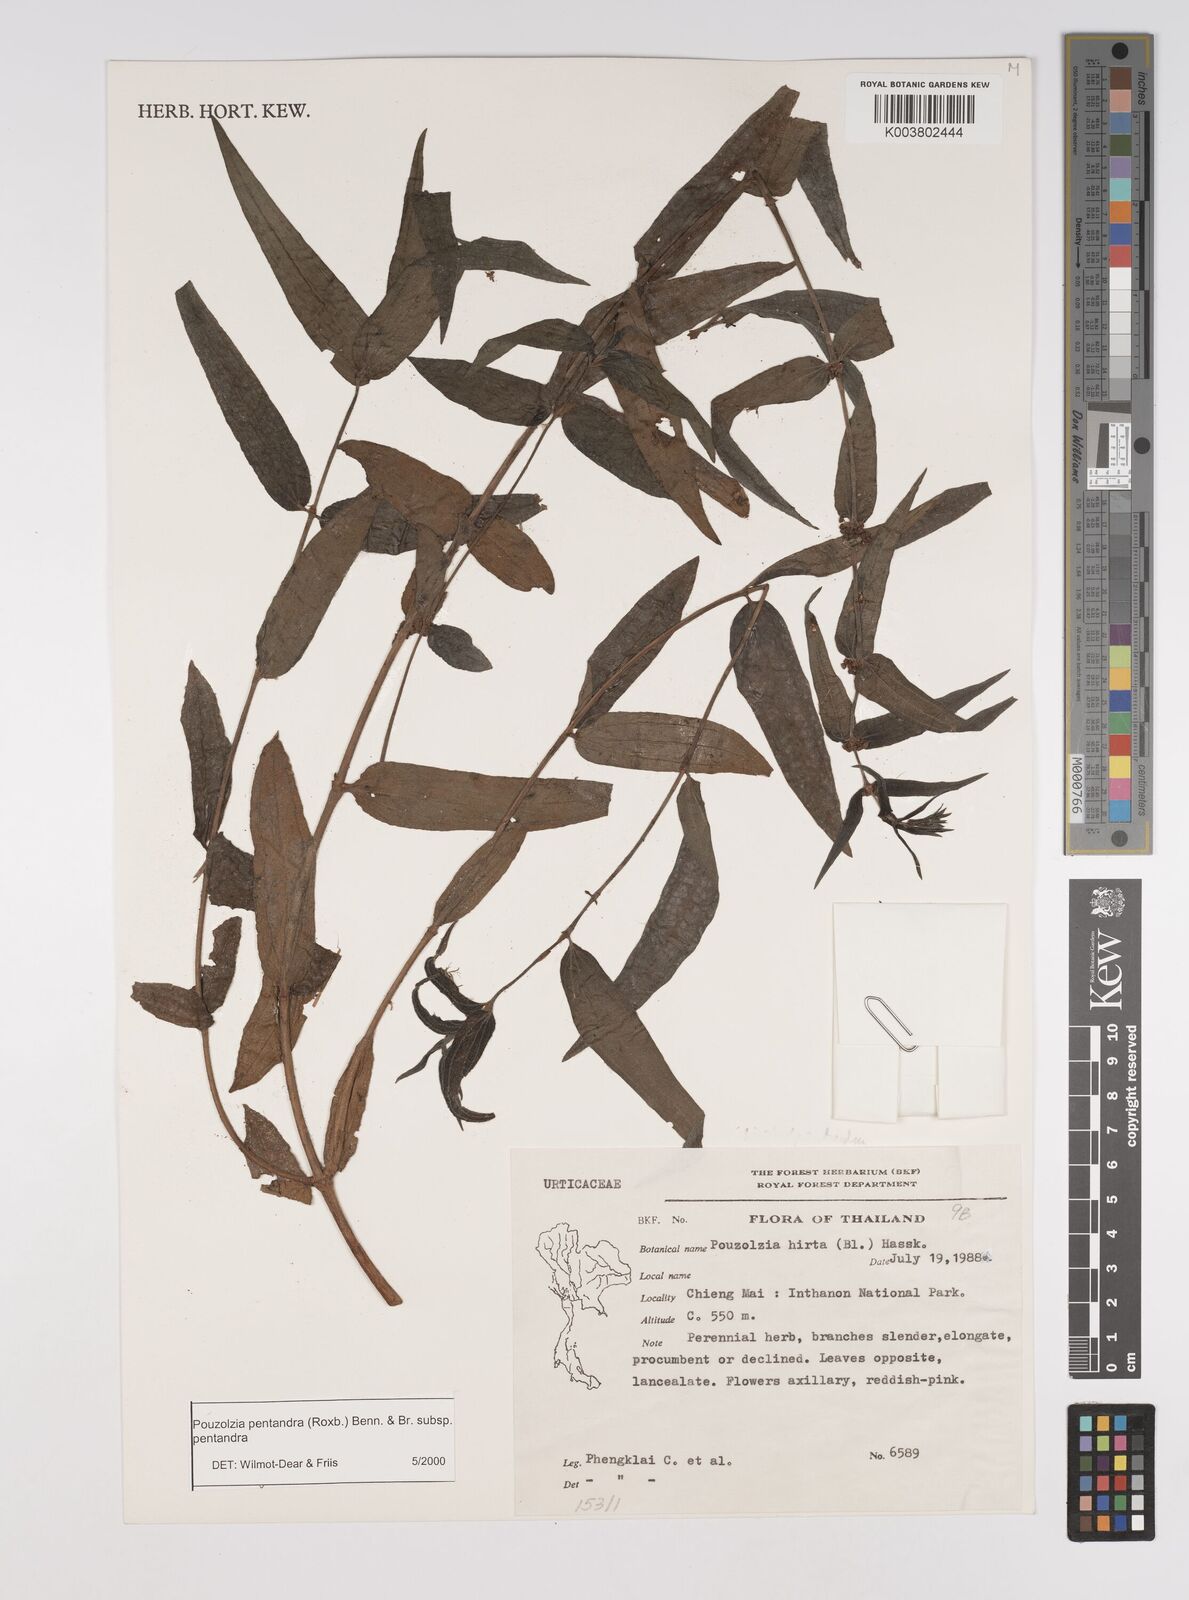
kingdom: Plantae
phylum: Tracheophyta
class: Magnoliopsida
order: Rosales
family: Urticaceae
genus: Gonostegia
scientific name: Gonostegia pentandra
